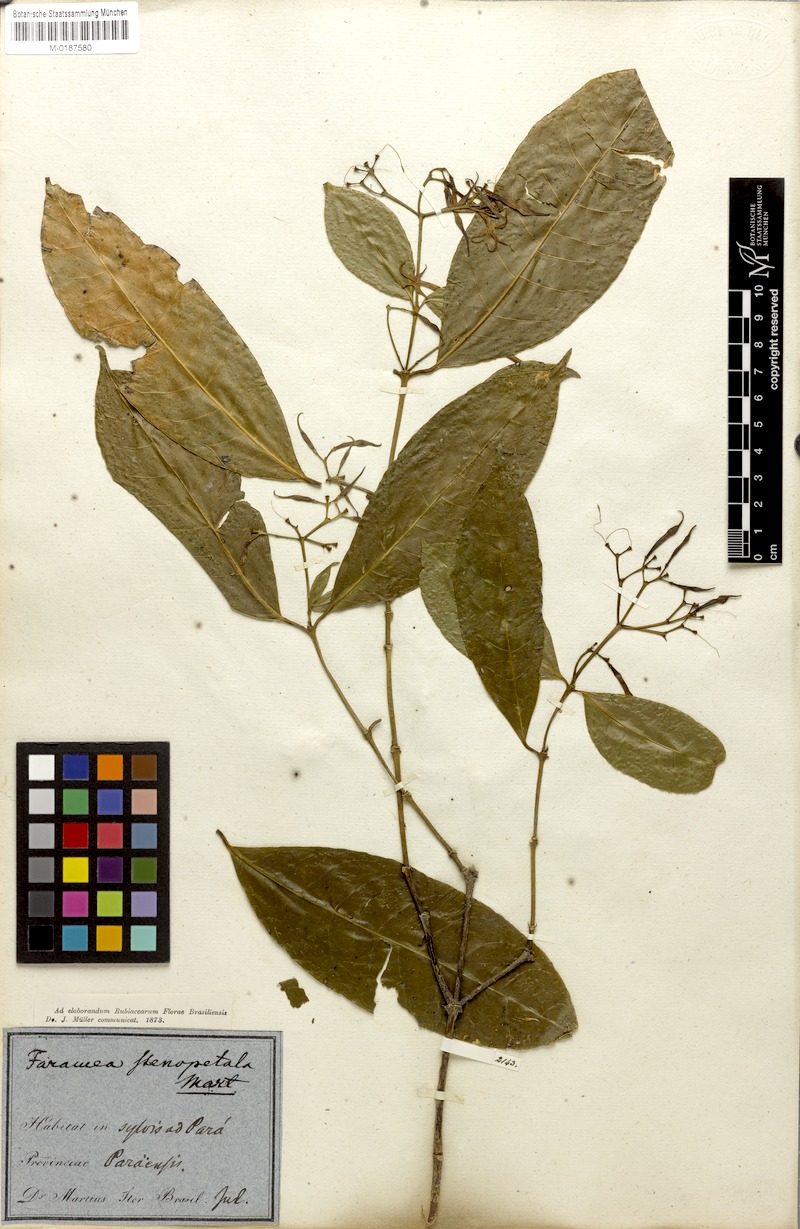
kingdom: Plantae
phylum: Tracheophyta
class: Magnoliopsida
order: Gentianales
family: Rubiaceae
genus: Faramea
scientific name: Faramea stenopetala
